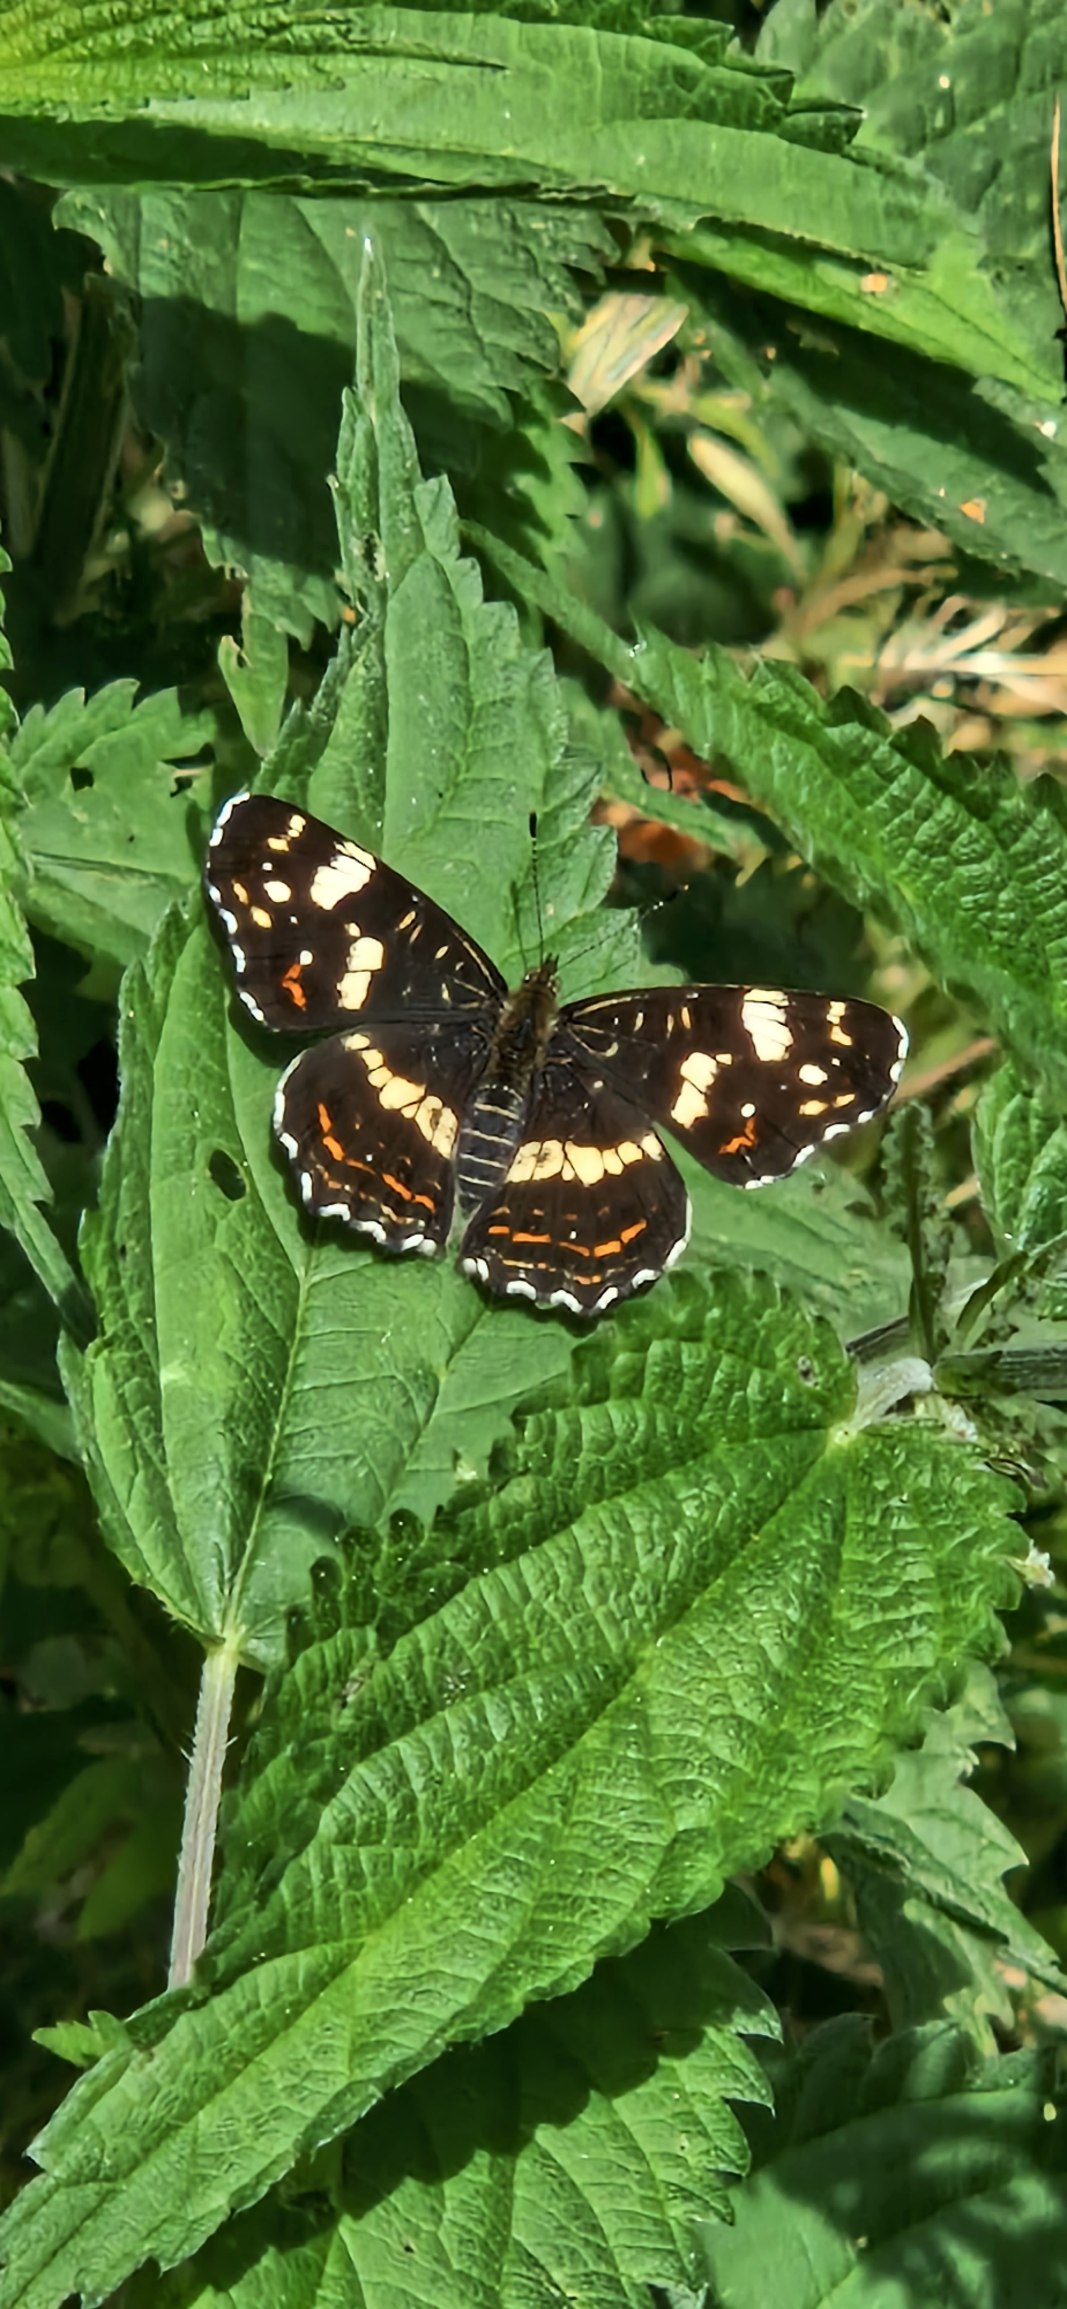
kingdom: Animalia
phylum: Arthropoda
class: Insecta
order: Lepidoptera
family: Nymphalidae
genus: Araschnia
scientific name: Araschnia levana
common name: Nældesommerfugl
